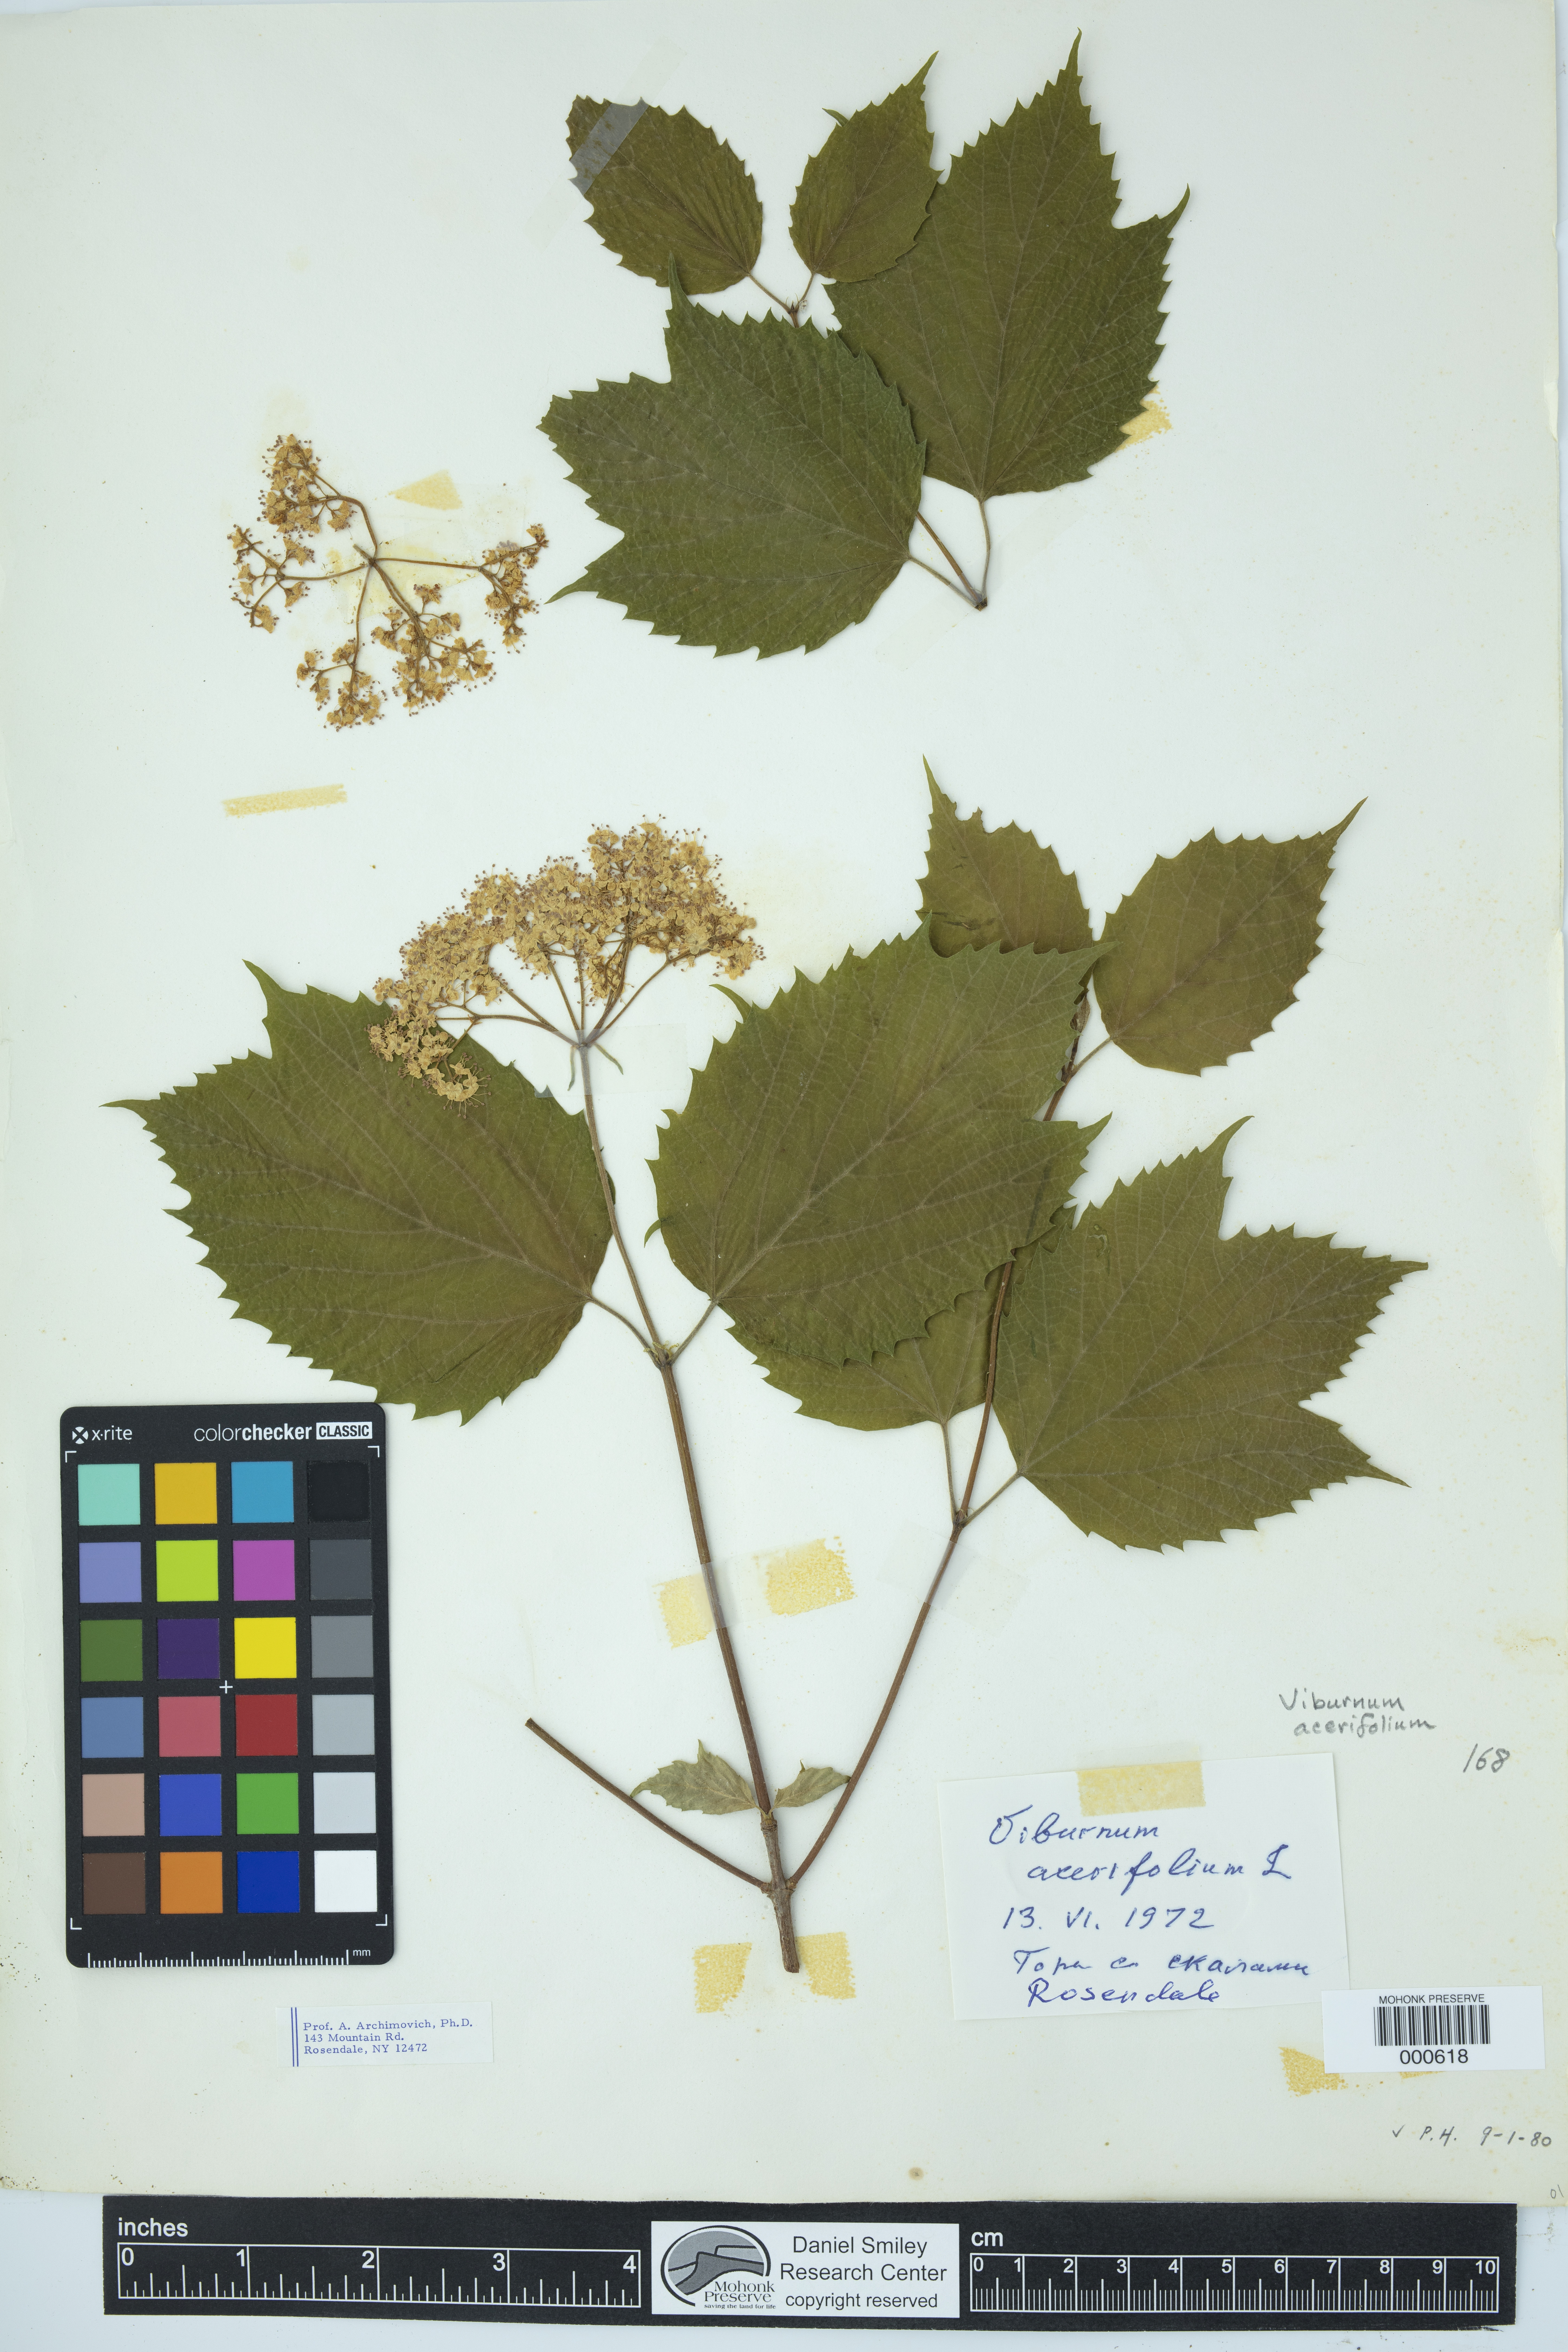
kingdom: Plantae
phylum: Tracheophyta
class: Magnoliopsida
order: Dipsacales
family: Viburnaceae
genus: Viburnum
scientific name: Viburnum acerifolium
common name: Dockmackie
